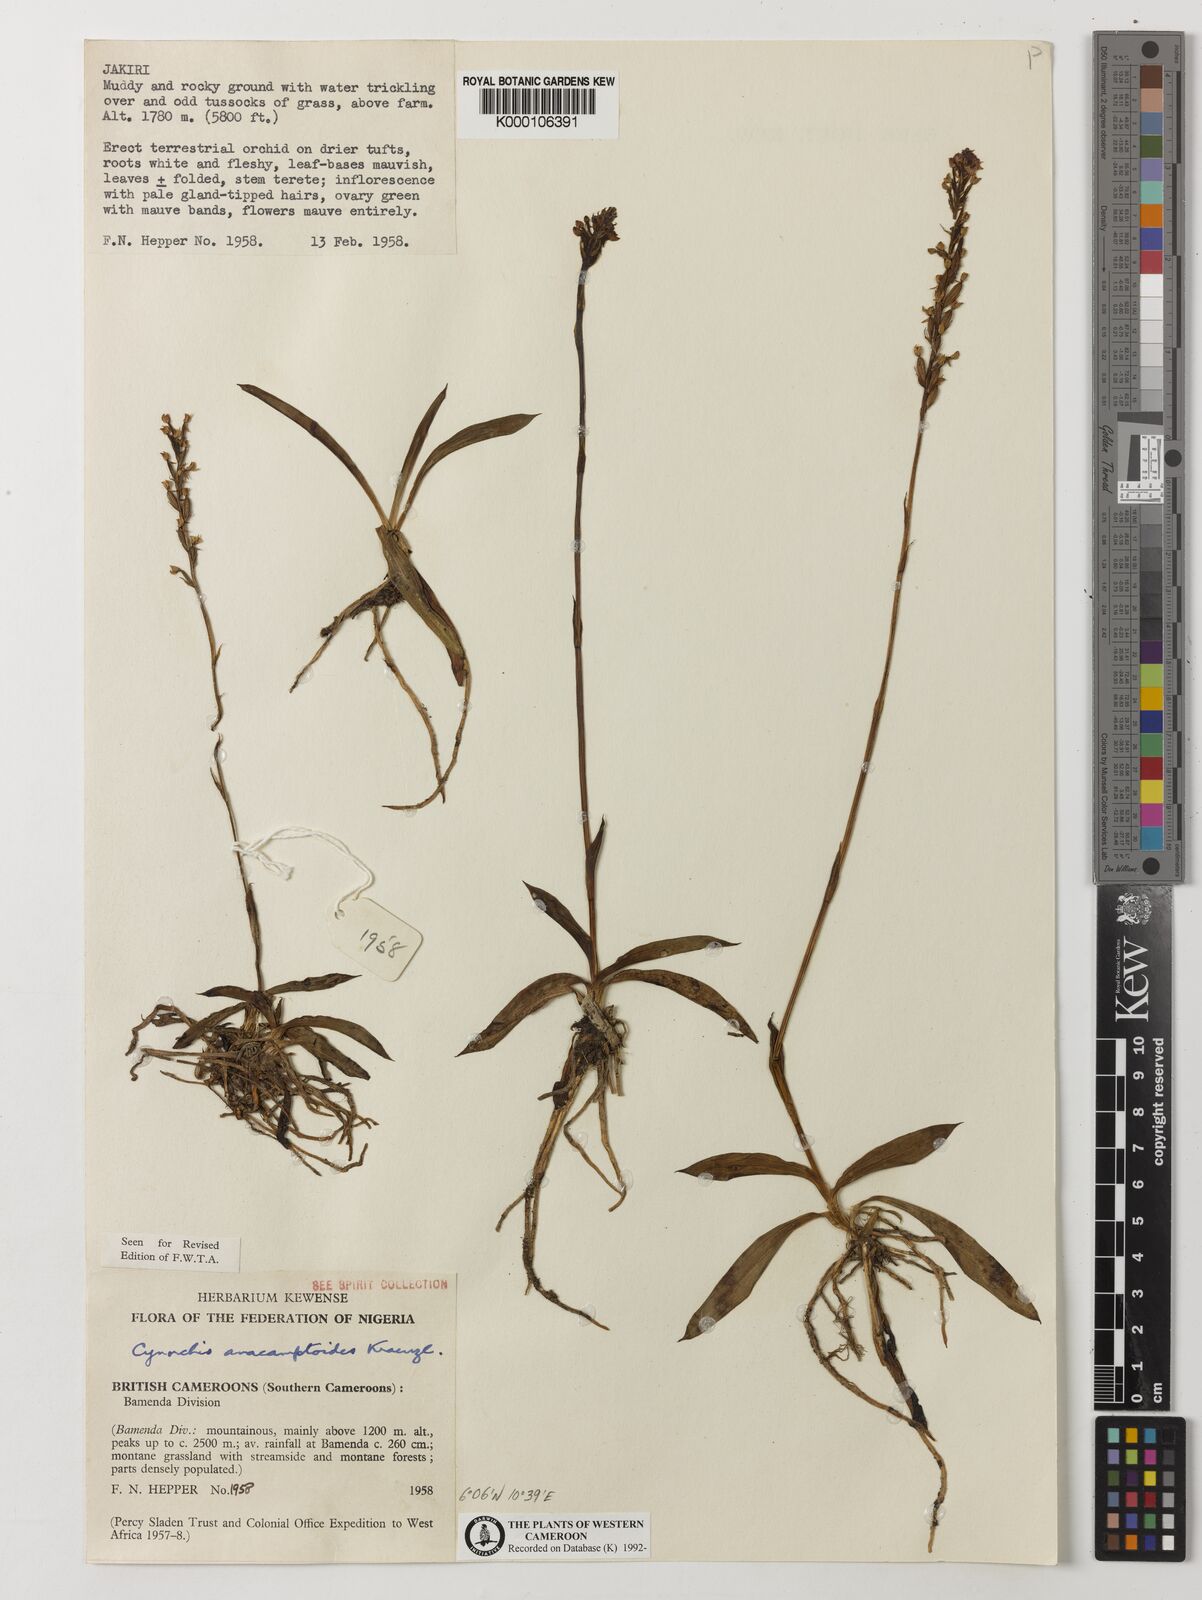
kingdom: Plantae
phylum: Tracheophyta
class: Liliopsida
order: Asparagales
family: Orchidaceae
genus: Cynorkis
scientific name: Cynorkis anacamptoides
